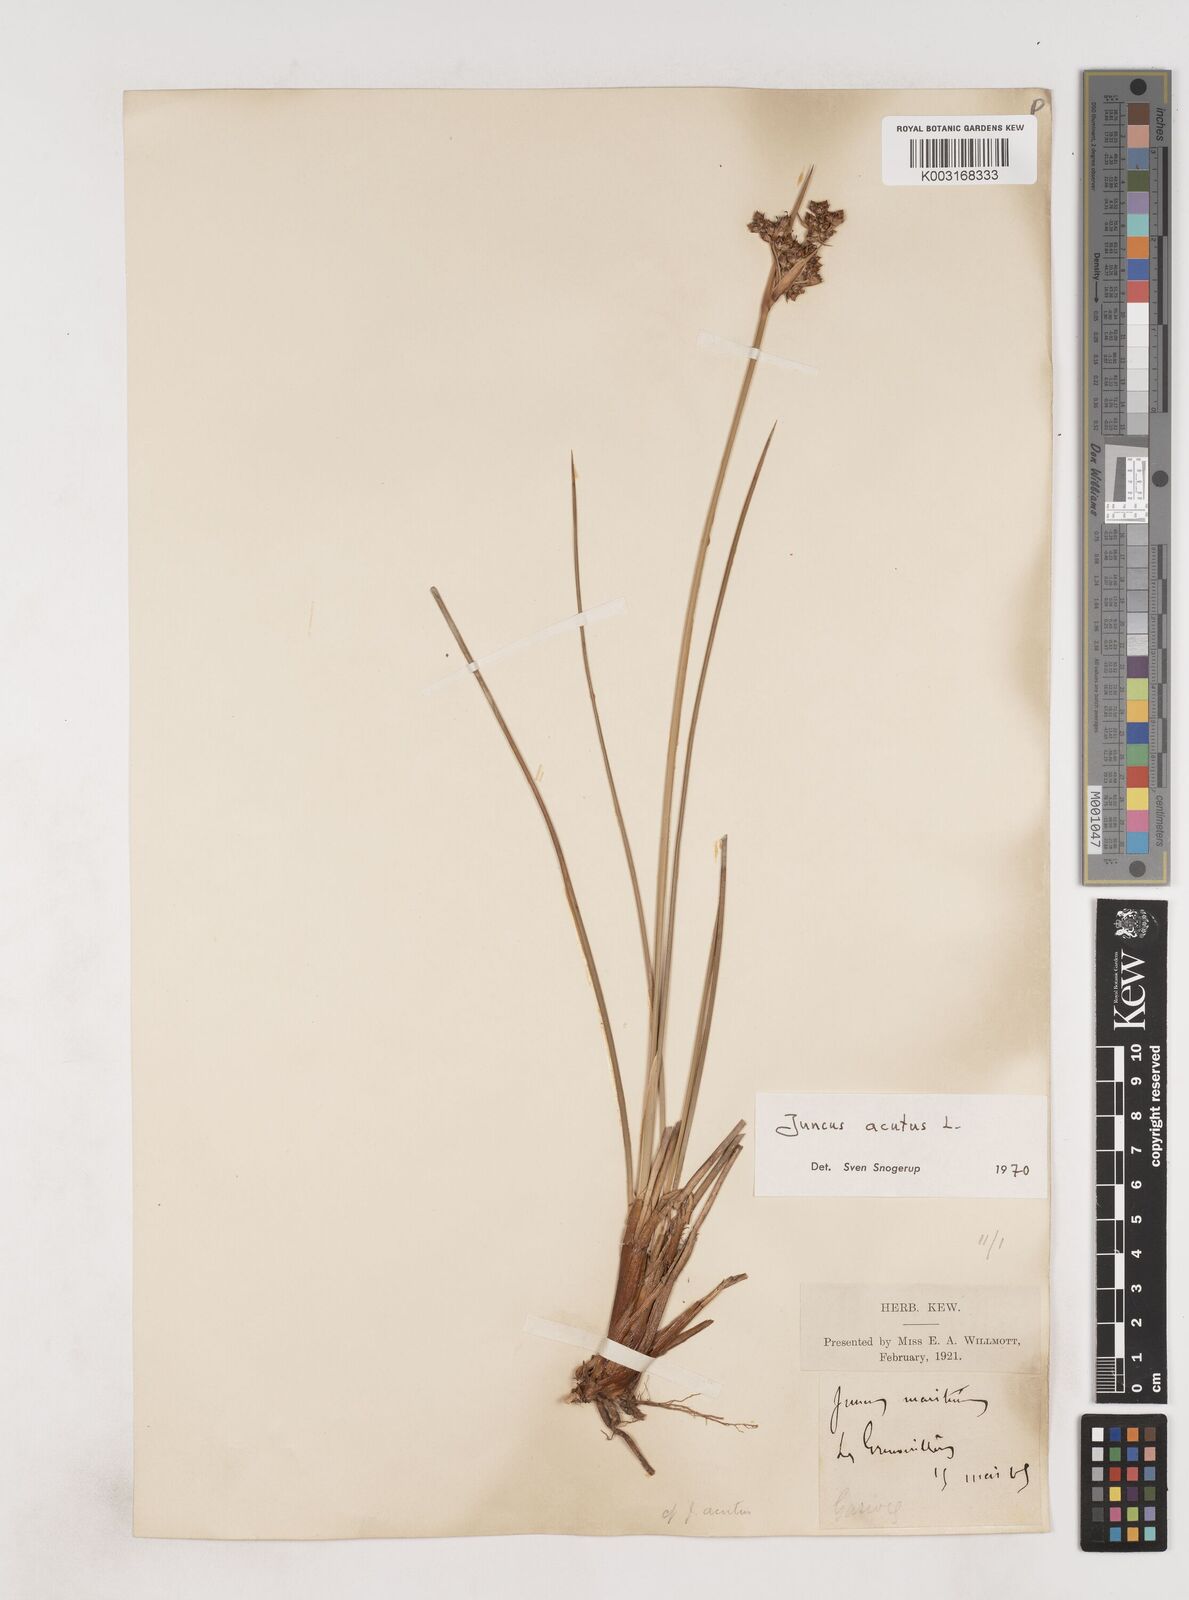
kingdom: Plantae
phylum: Tracheophyta
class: Liliopsida
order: Poales
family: Juncaceae
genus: Juncus
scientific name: Juncus acutus
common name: Sharp rush
